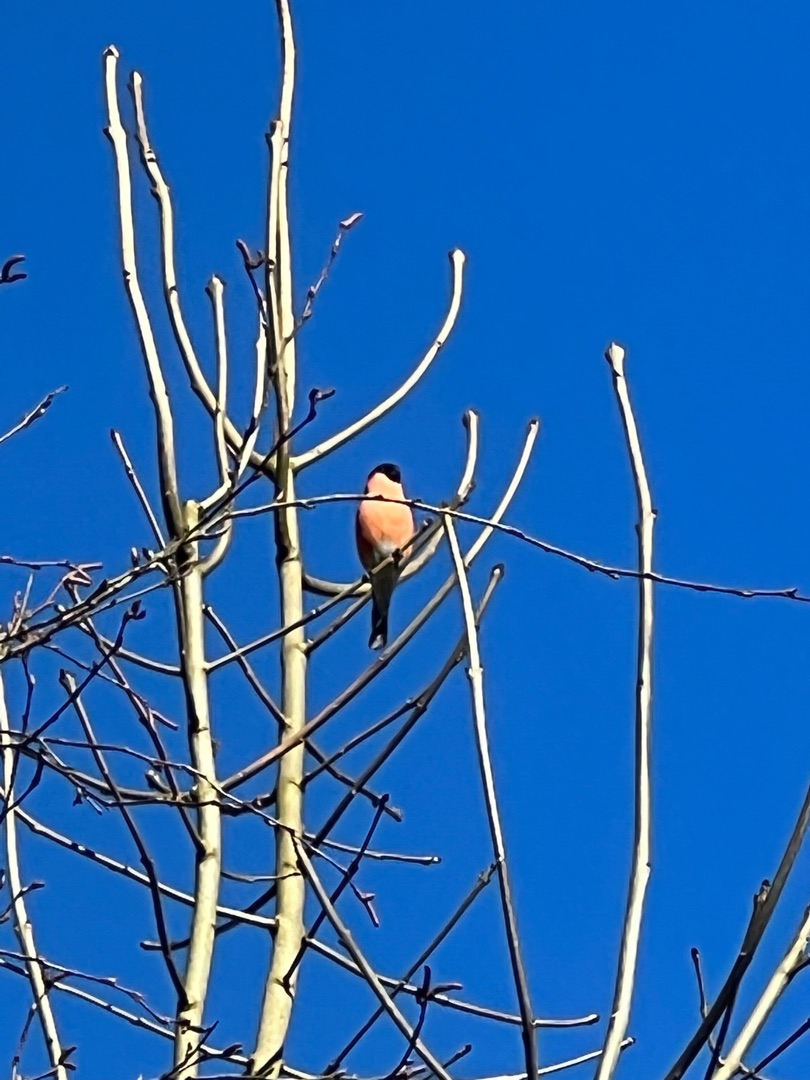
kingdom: Animalia
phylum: Chordata
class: Aves
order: Passeriformes
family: Fringillidae
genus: Pyrrhula
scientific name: Pyrrhula pyrrhula
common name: Dompap
